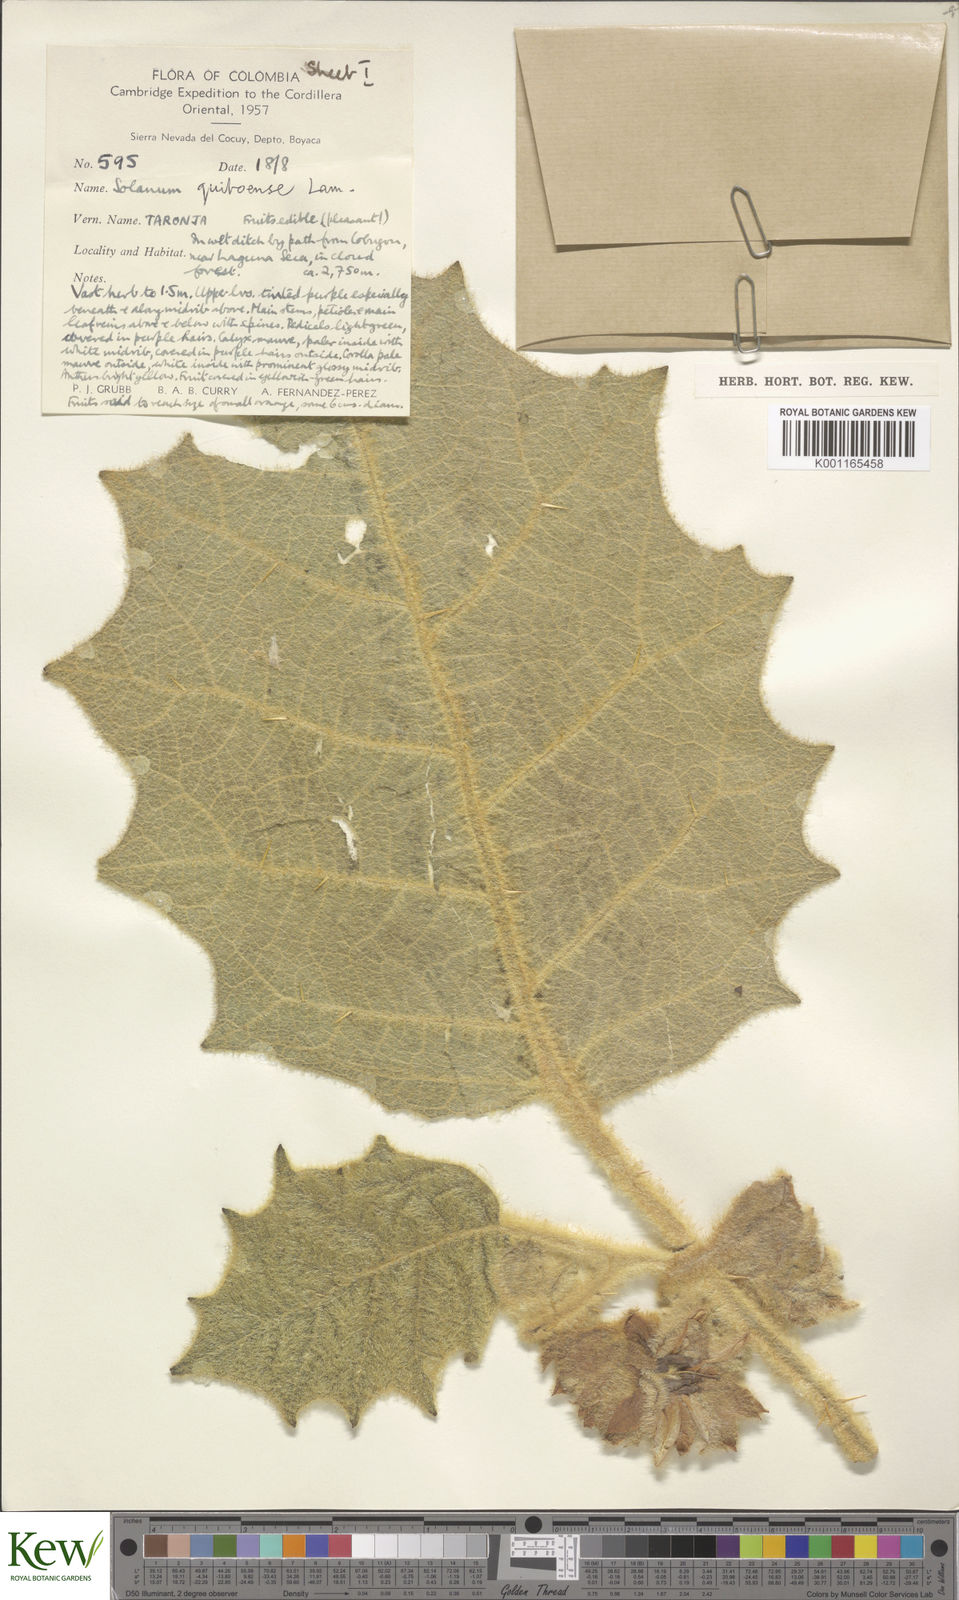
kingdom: Plantae
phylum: Tracheophyta
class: Magnoliopsida
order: Solanales
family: Solanaceae
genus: Solanum
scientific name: Solanum quitoense
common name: Quito-orange
